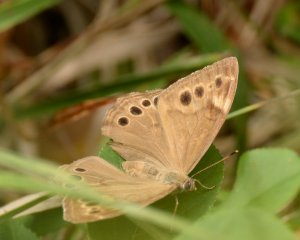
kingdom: Animalia
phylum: Arthropoda
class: Insecta
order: Lepidoptera
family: Nymphalidae
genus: Lethe
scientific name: Lethe anthedon
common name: Northern Pearly-Eye
